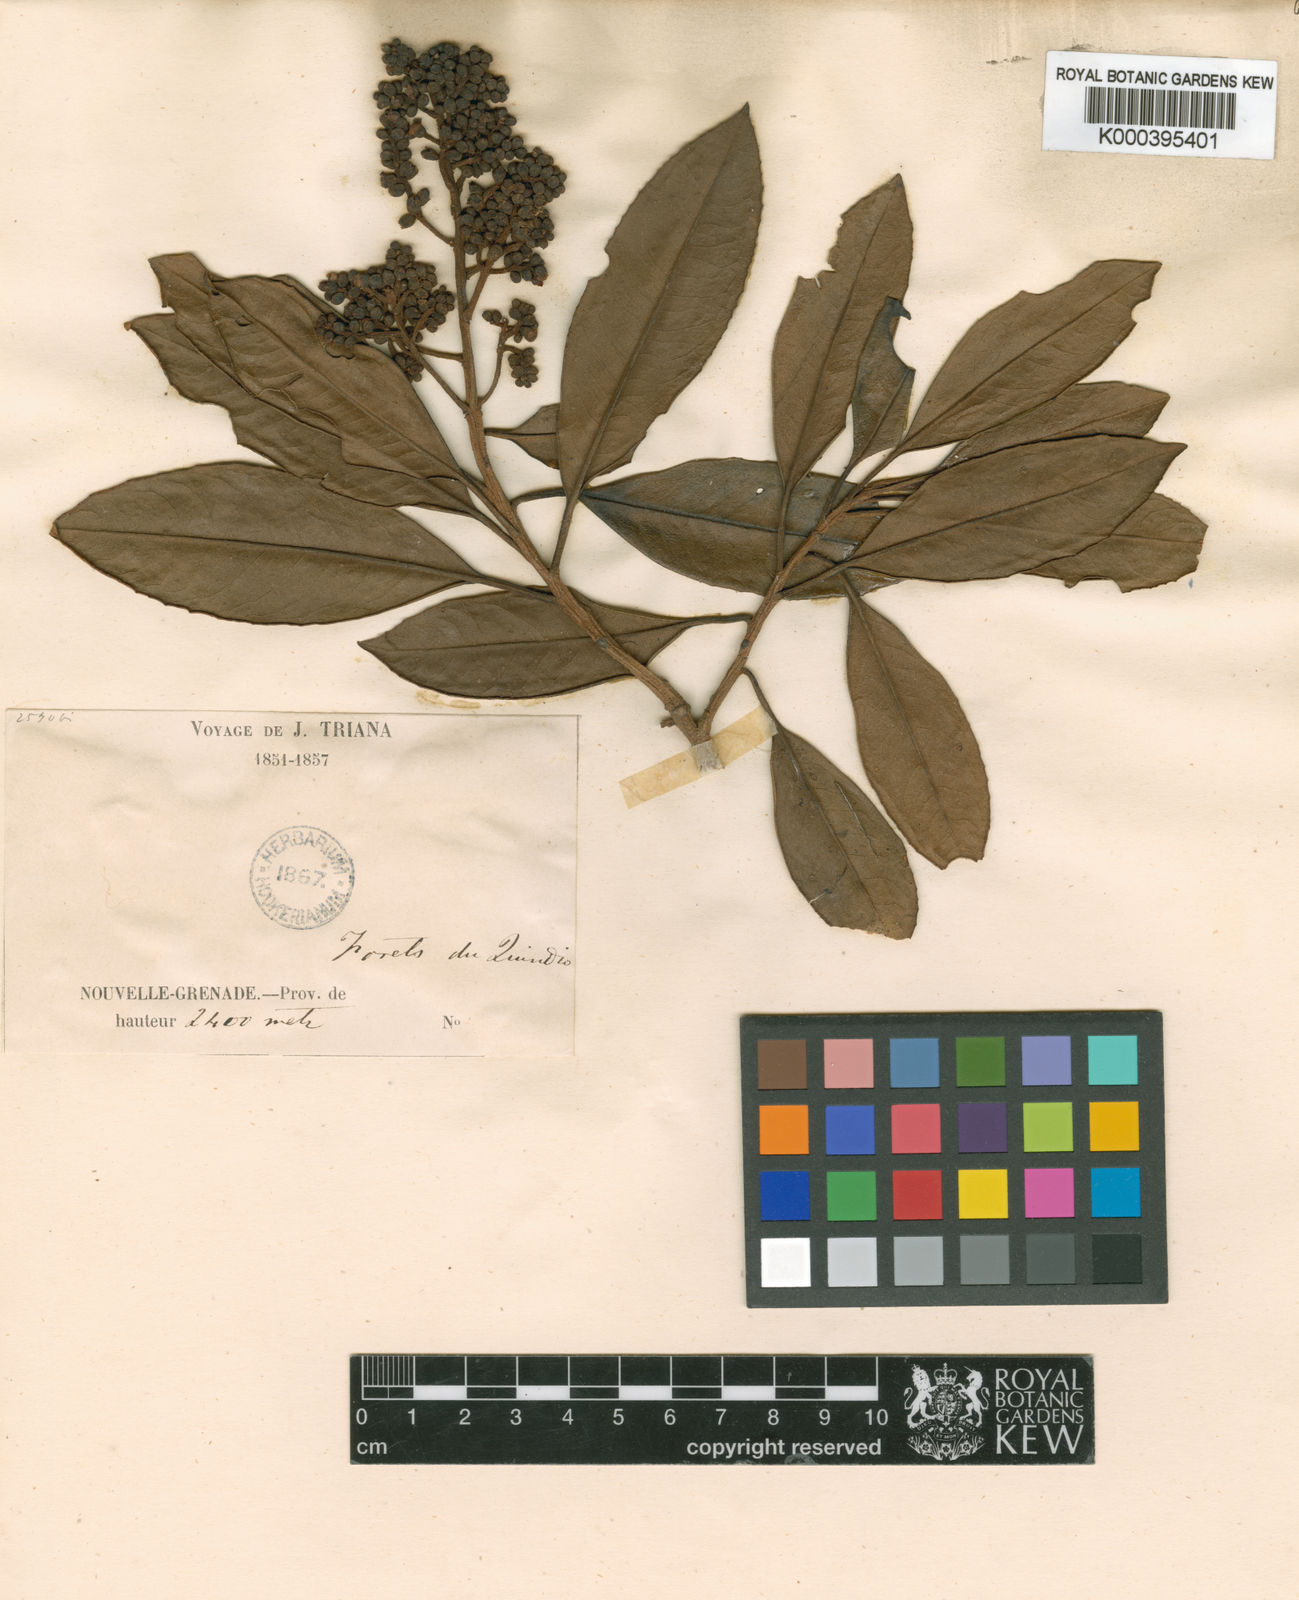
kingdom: Plantae
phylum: Tracheophyta
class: Magnoliopsida
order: Ericales
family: Primulaceae
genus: Geissanthus
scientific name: Geissanthus goudotianus
